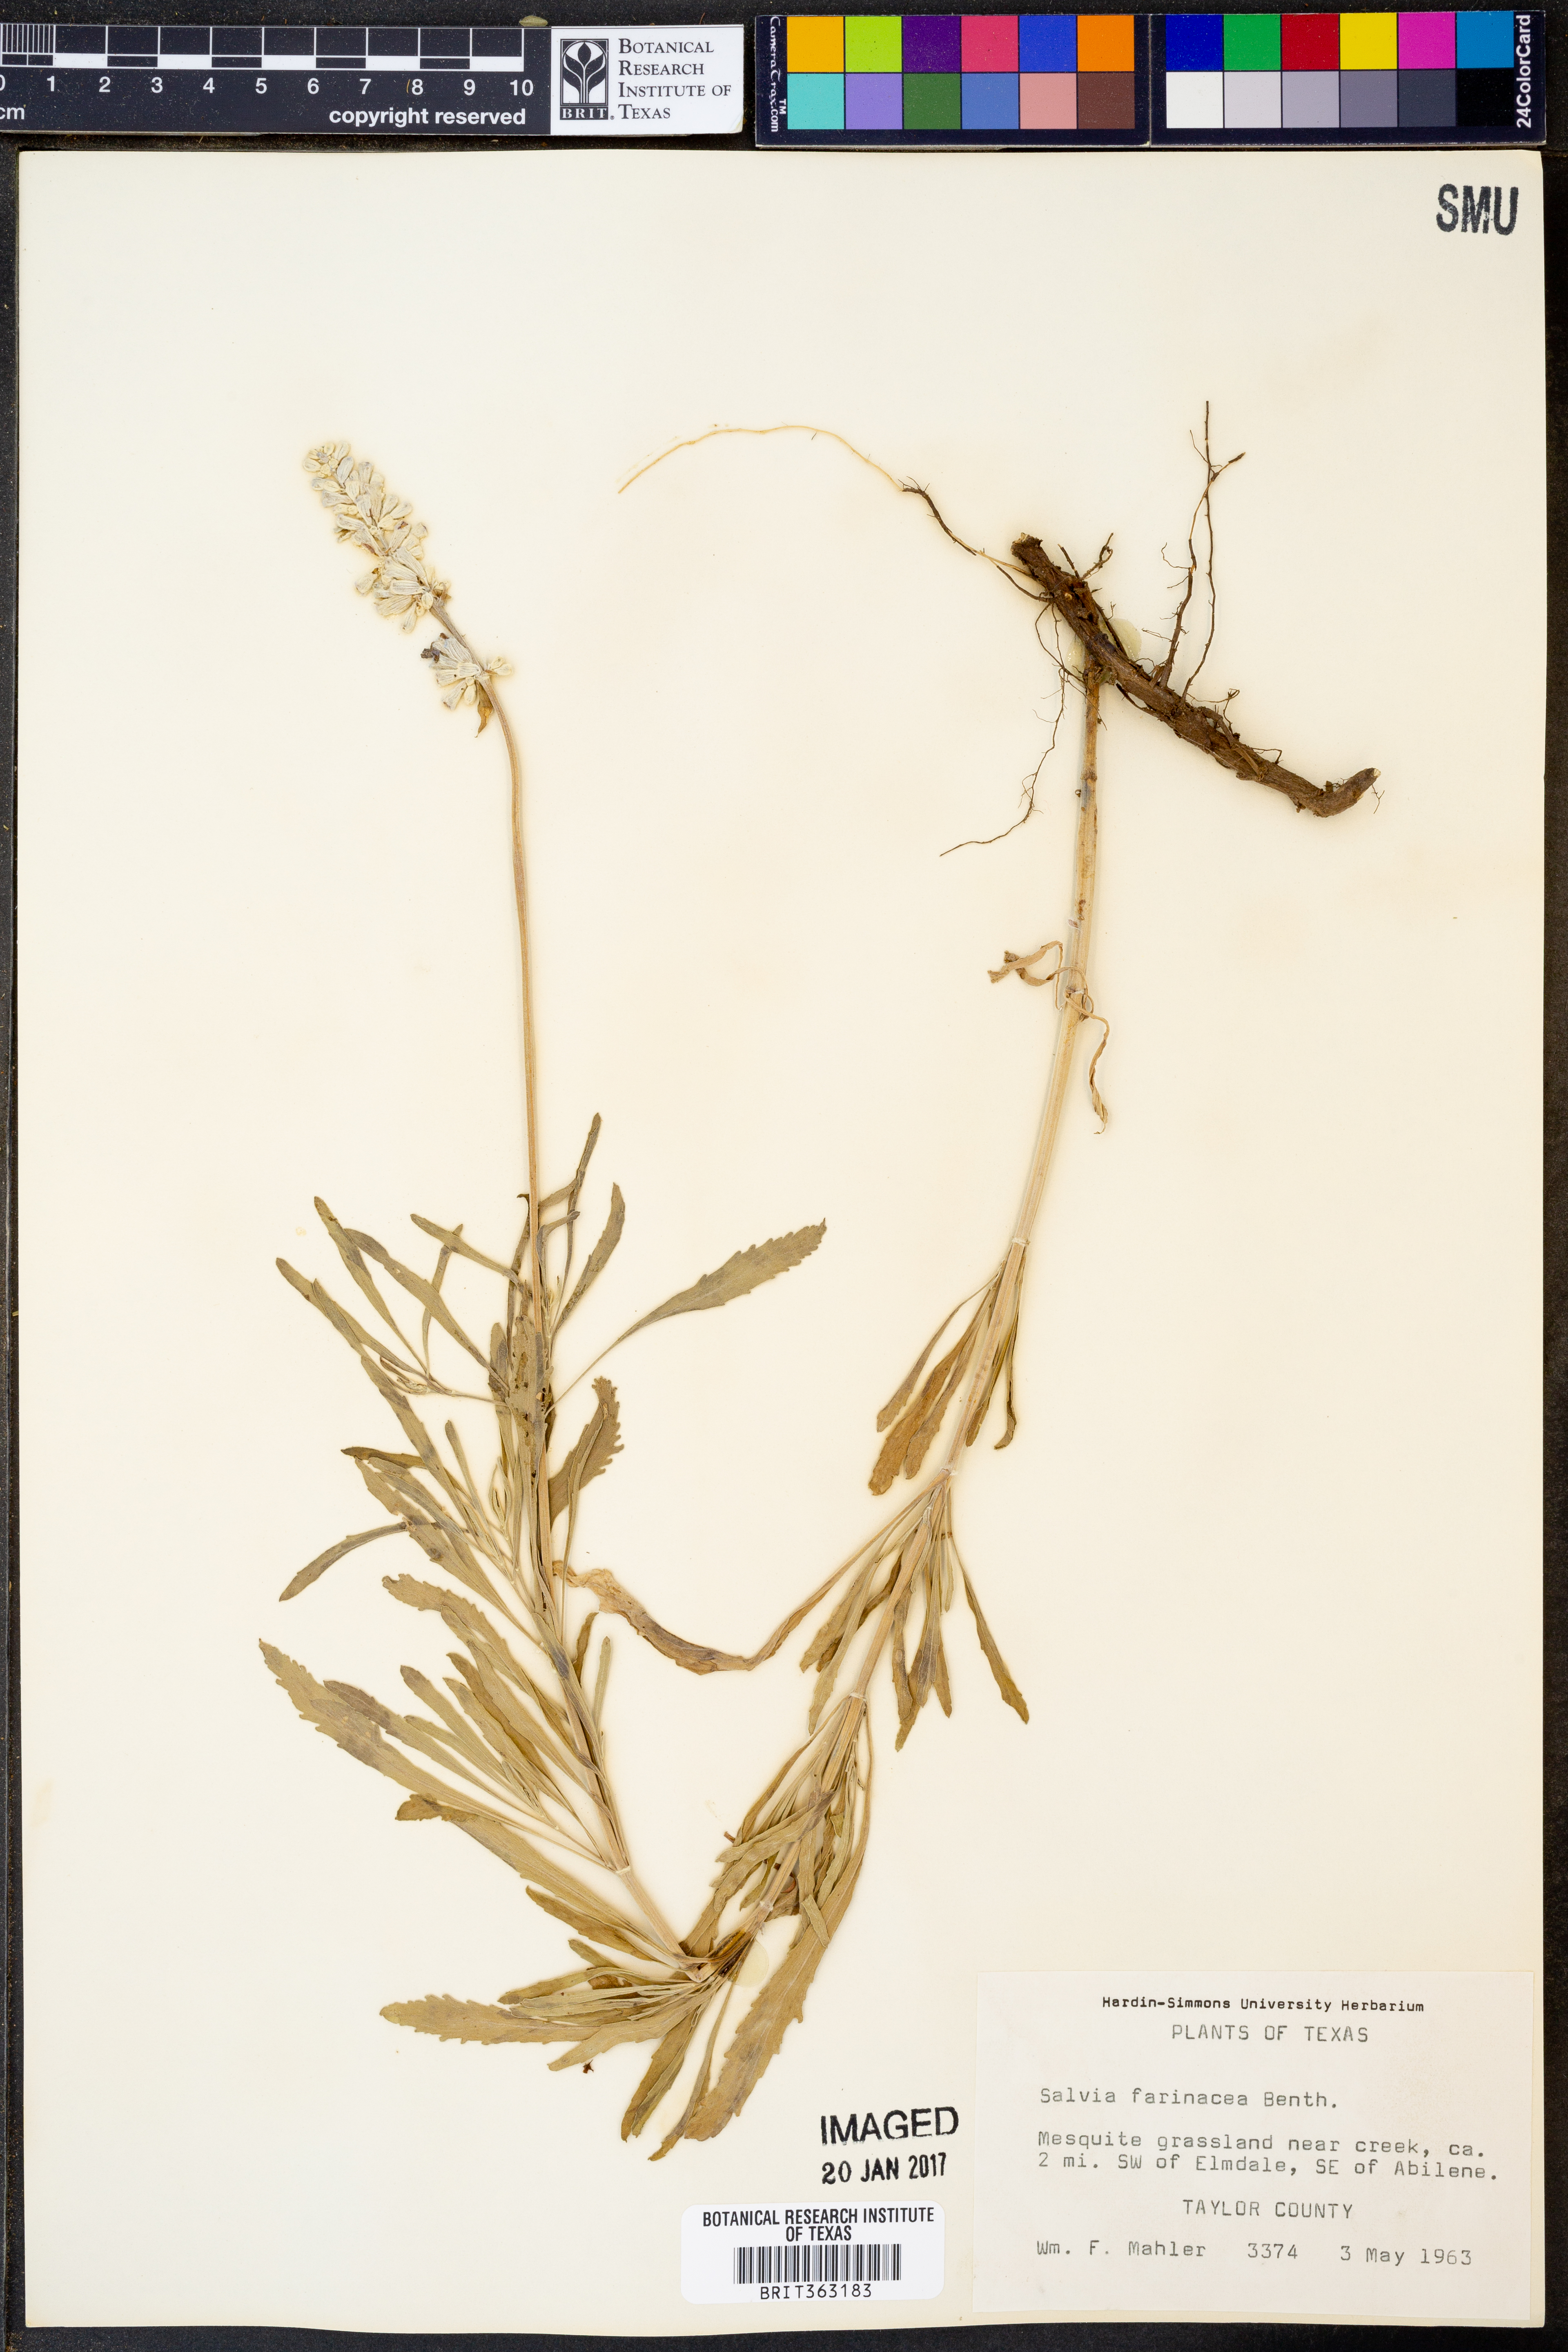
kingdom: Plantae
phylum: Tracheophyta
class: Magnoliopsida
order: Lamiales
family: Lamiaceae
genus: Salvia
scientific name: Salvia farinacea
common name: Mealy sage
